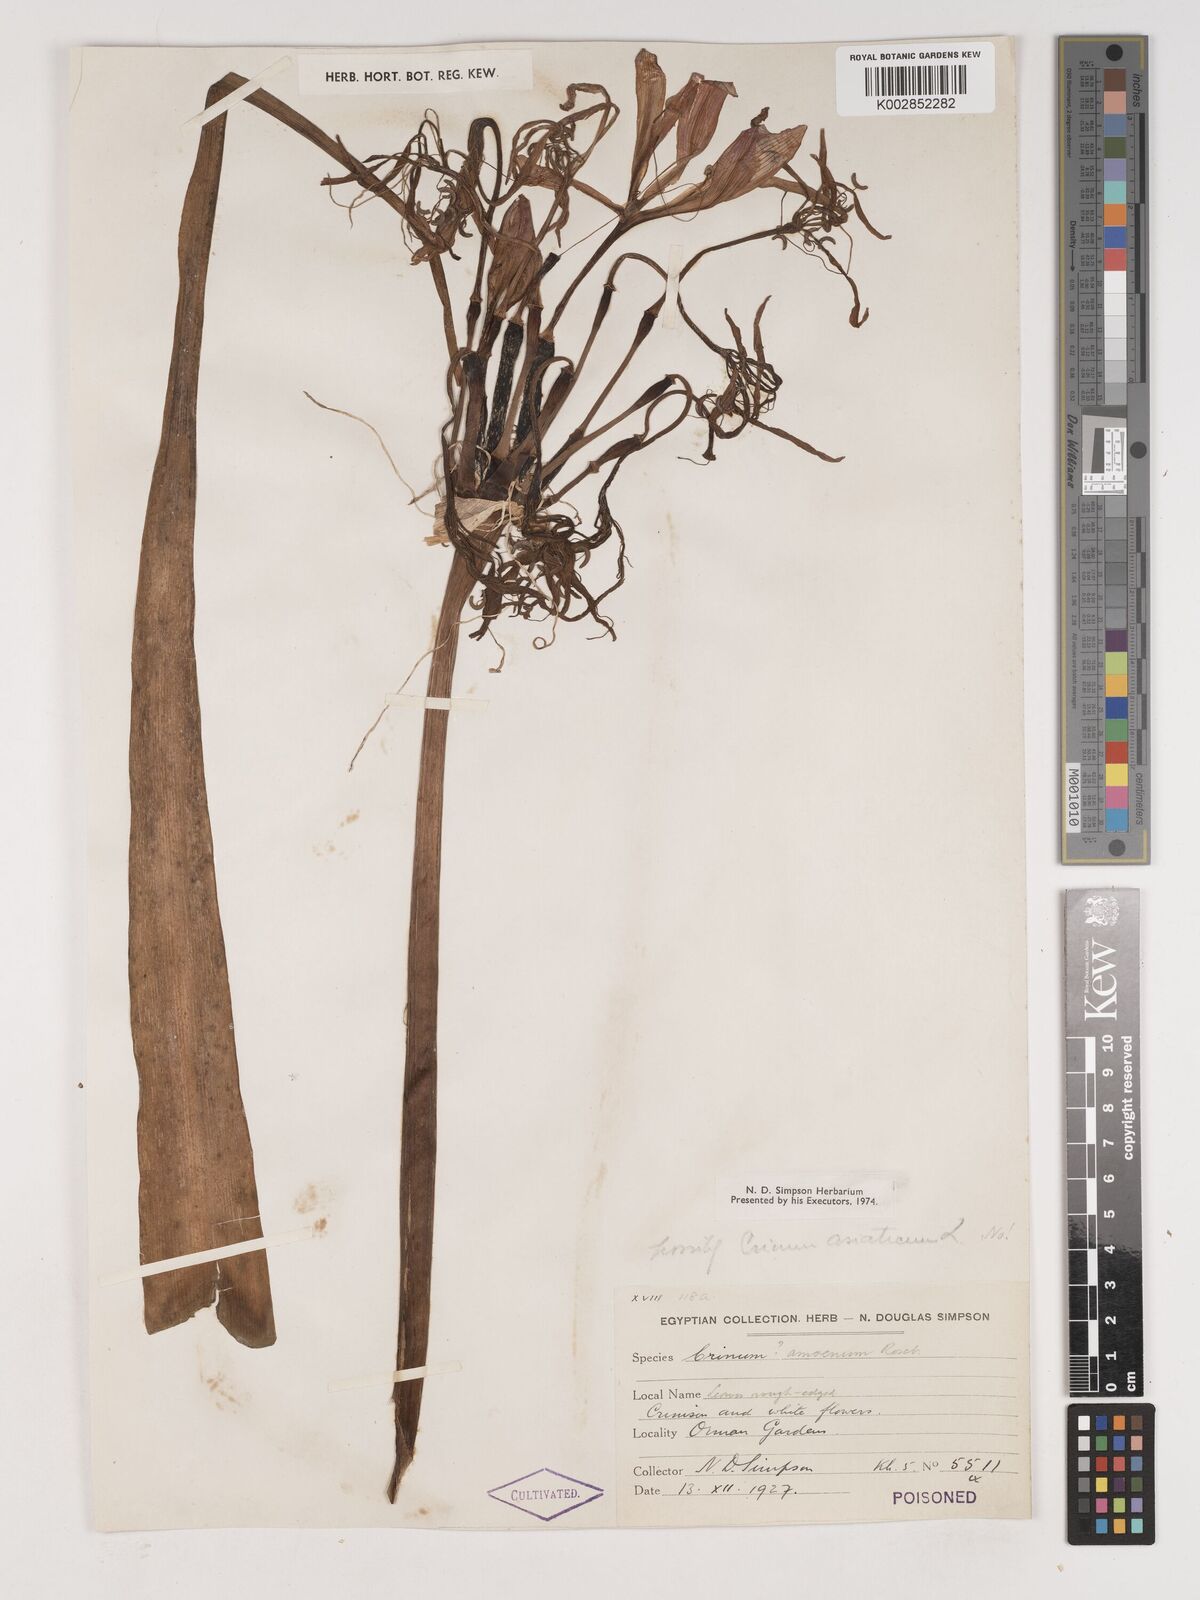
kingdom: Plantae
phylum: Tracheophyta
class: Liliopsida
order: Asparagales
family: Amaryllidaceae
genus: Crinum
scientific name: Crinum
